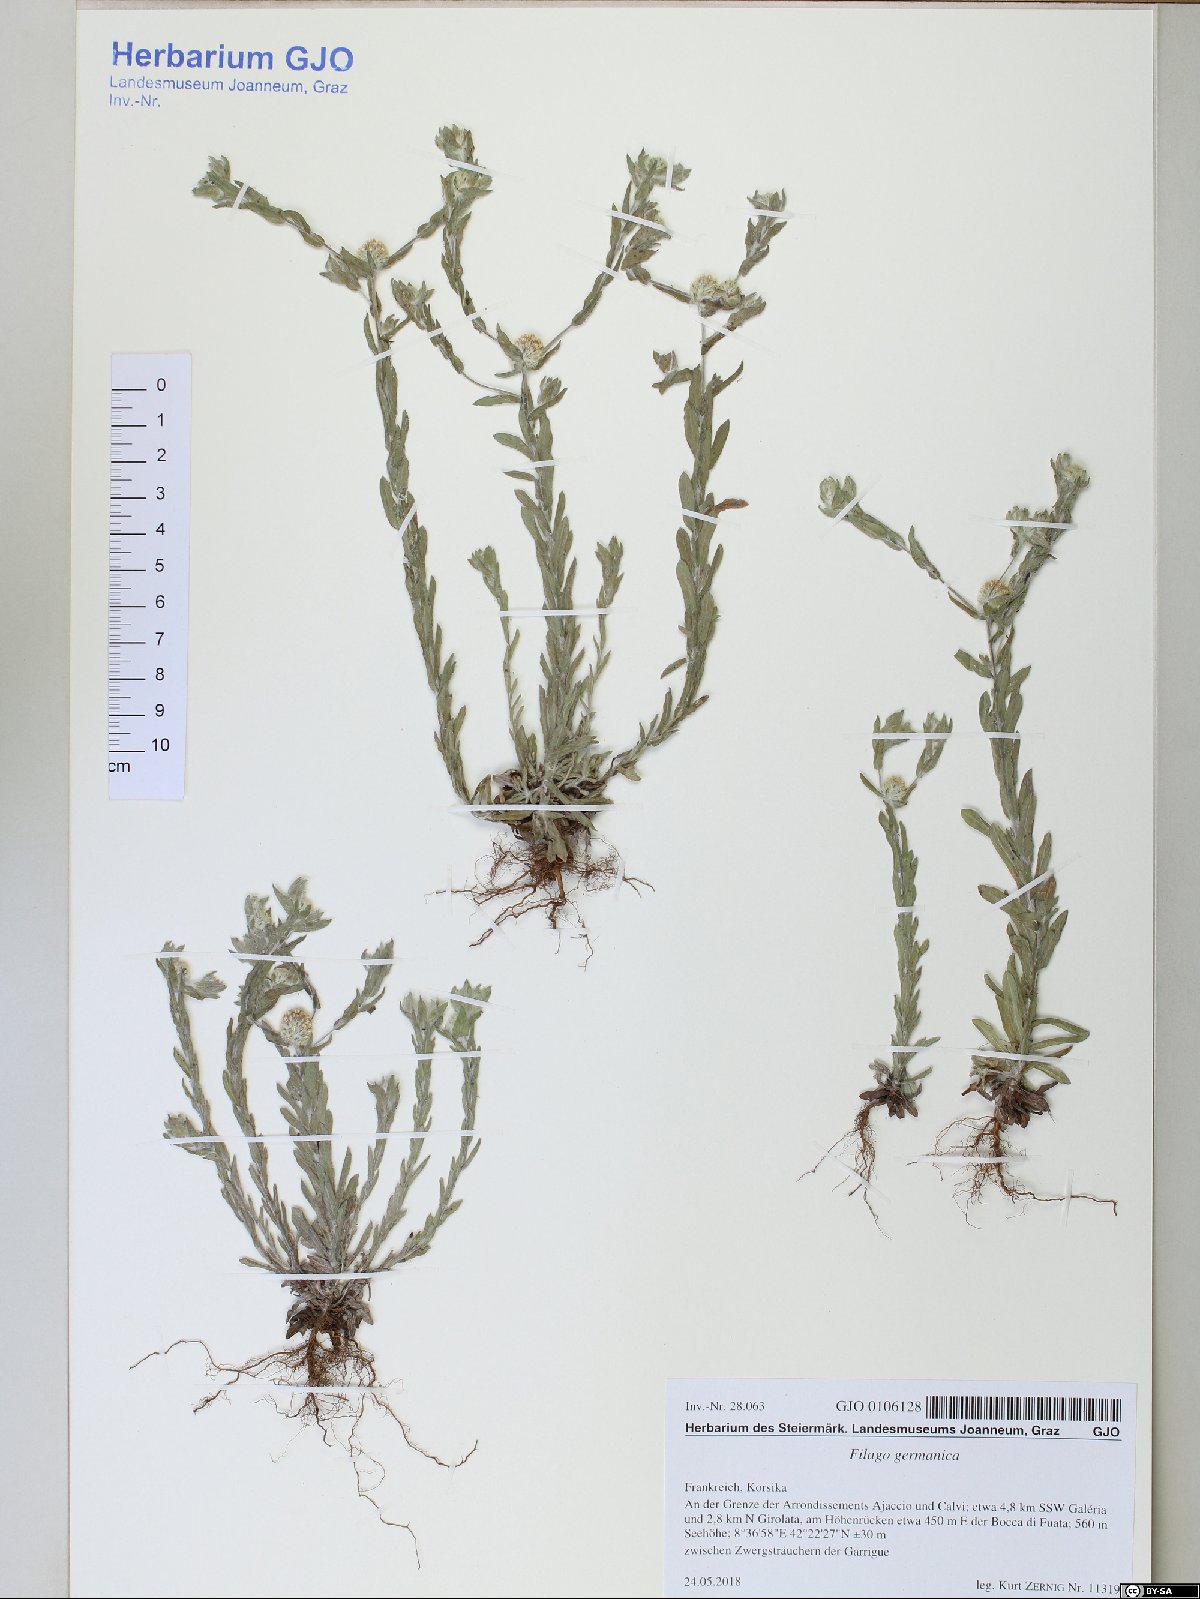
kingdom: Plantae
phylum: Tracheophyta
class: Magnoliopsida
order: Asterales
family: Asteraceae
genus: Filago
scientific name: Filago germanica
